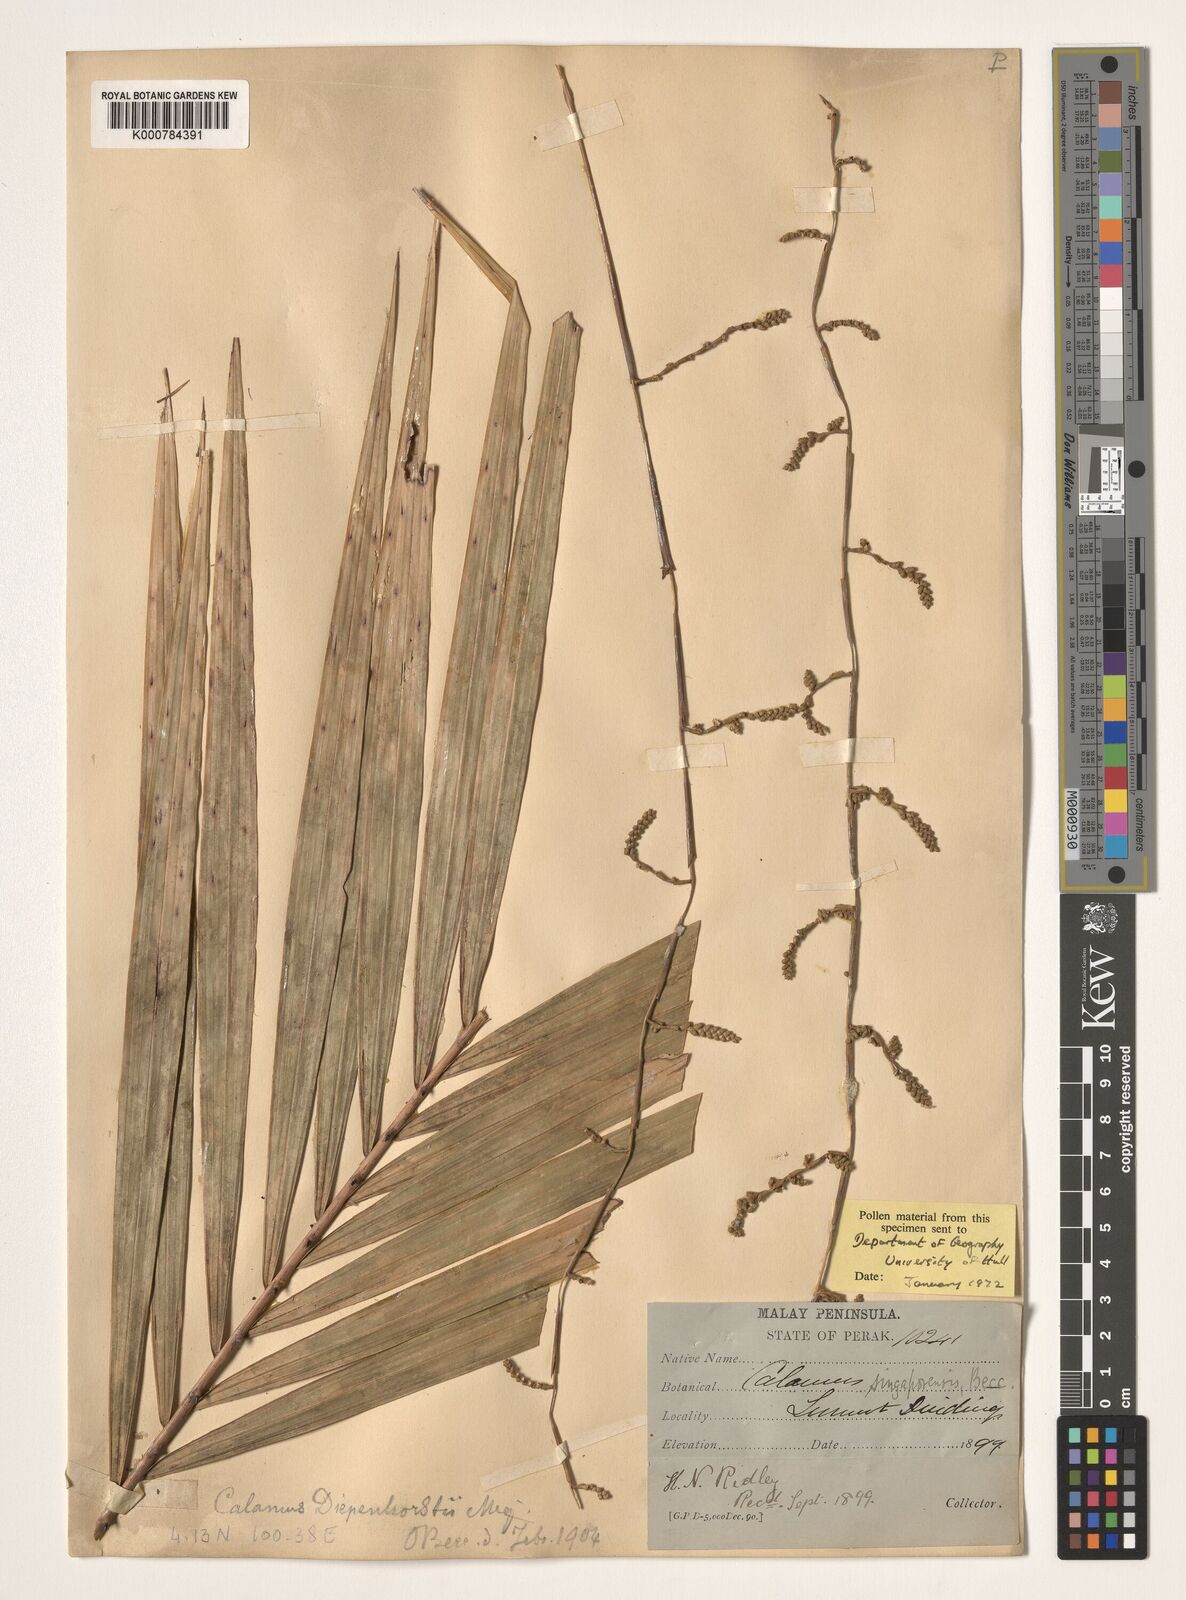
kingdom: Plantae
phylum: Tracheophyta
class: Liliopsida
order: Arecales
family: Arecaceae
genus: Calamus
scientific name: Calamus diepenhorstii
